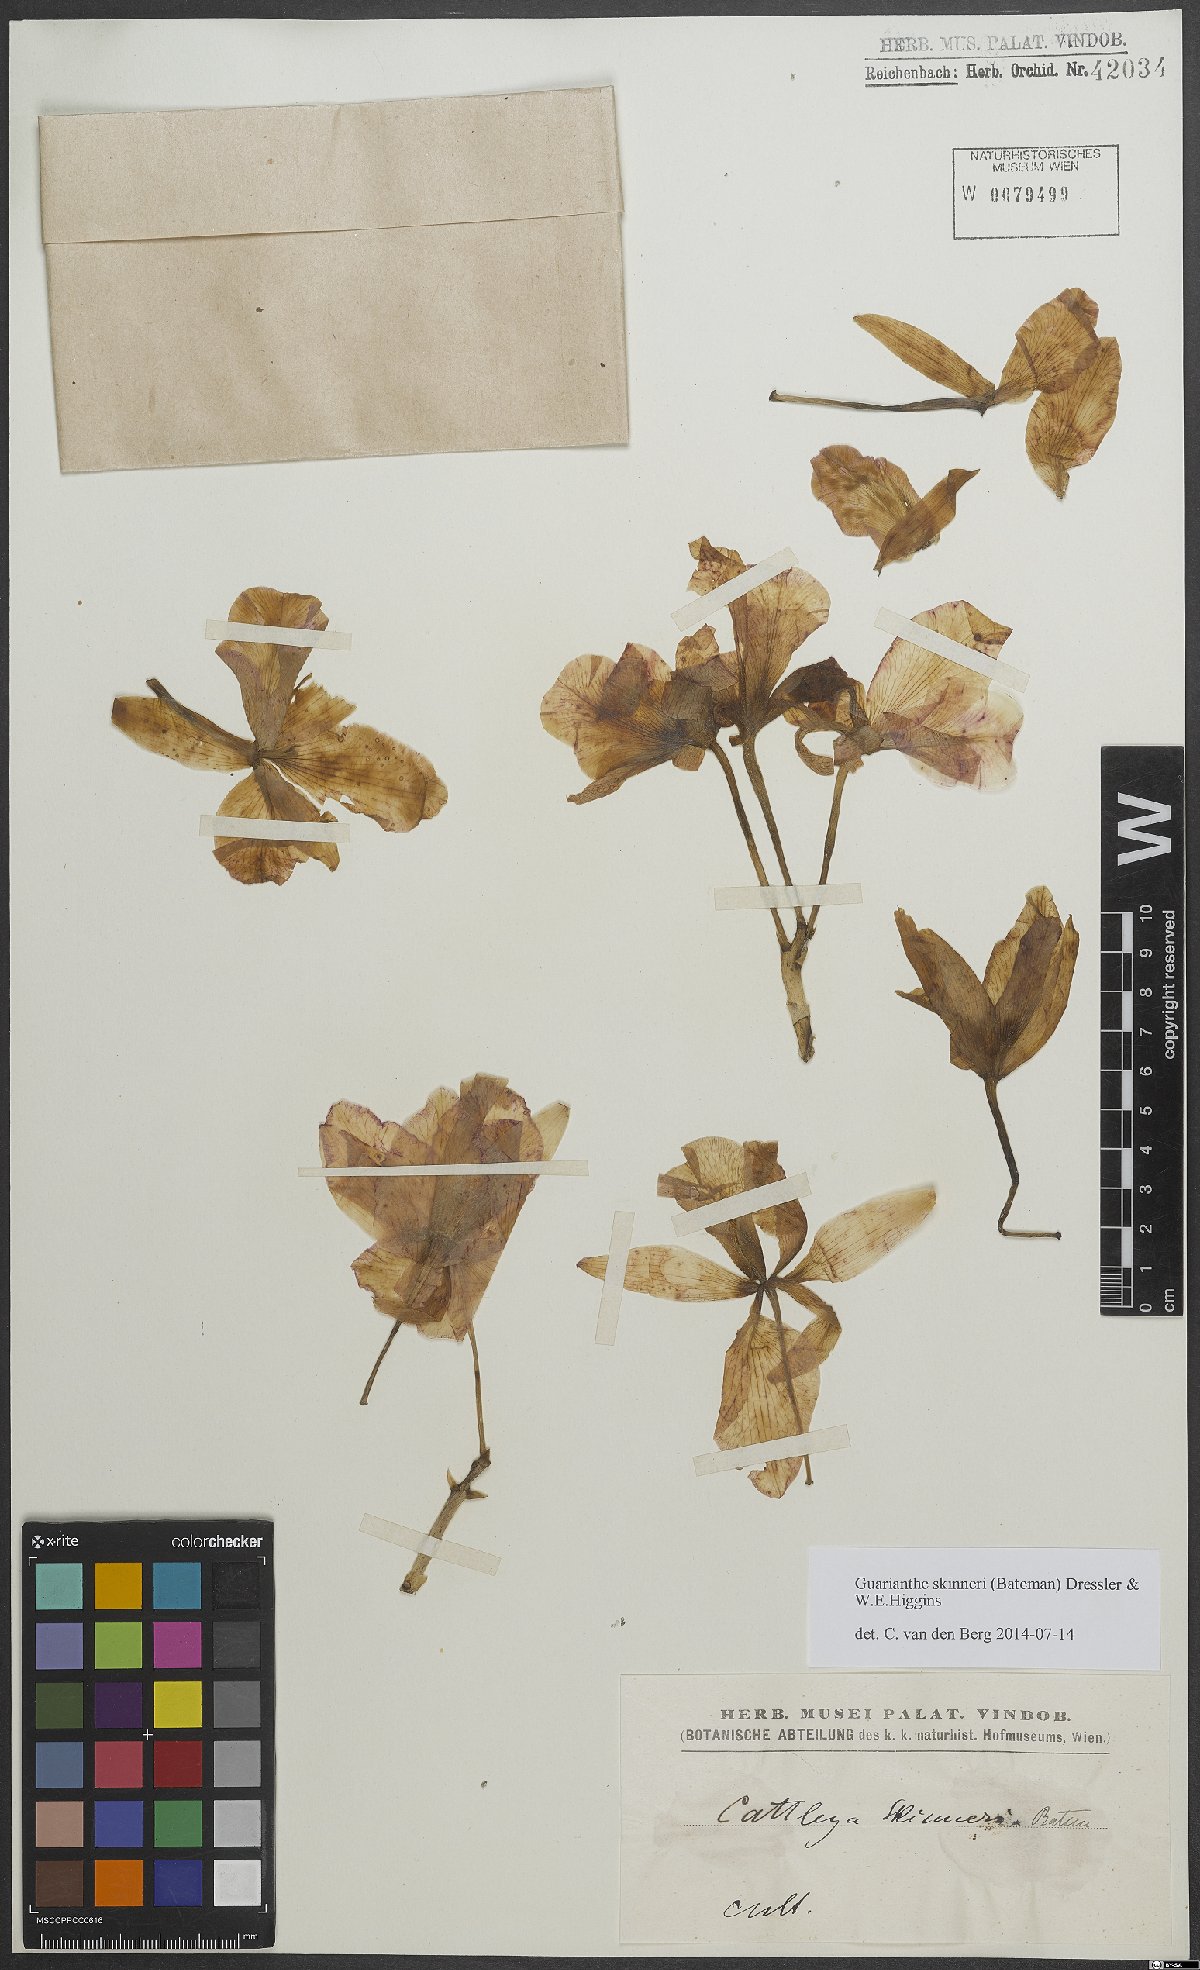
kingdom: Plantae
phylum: Tracheophyta
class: Liliopsida
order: Asparagales
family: Orchidaceae
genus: Guarianthe
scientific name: Guarianthe skinneri
